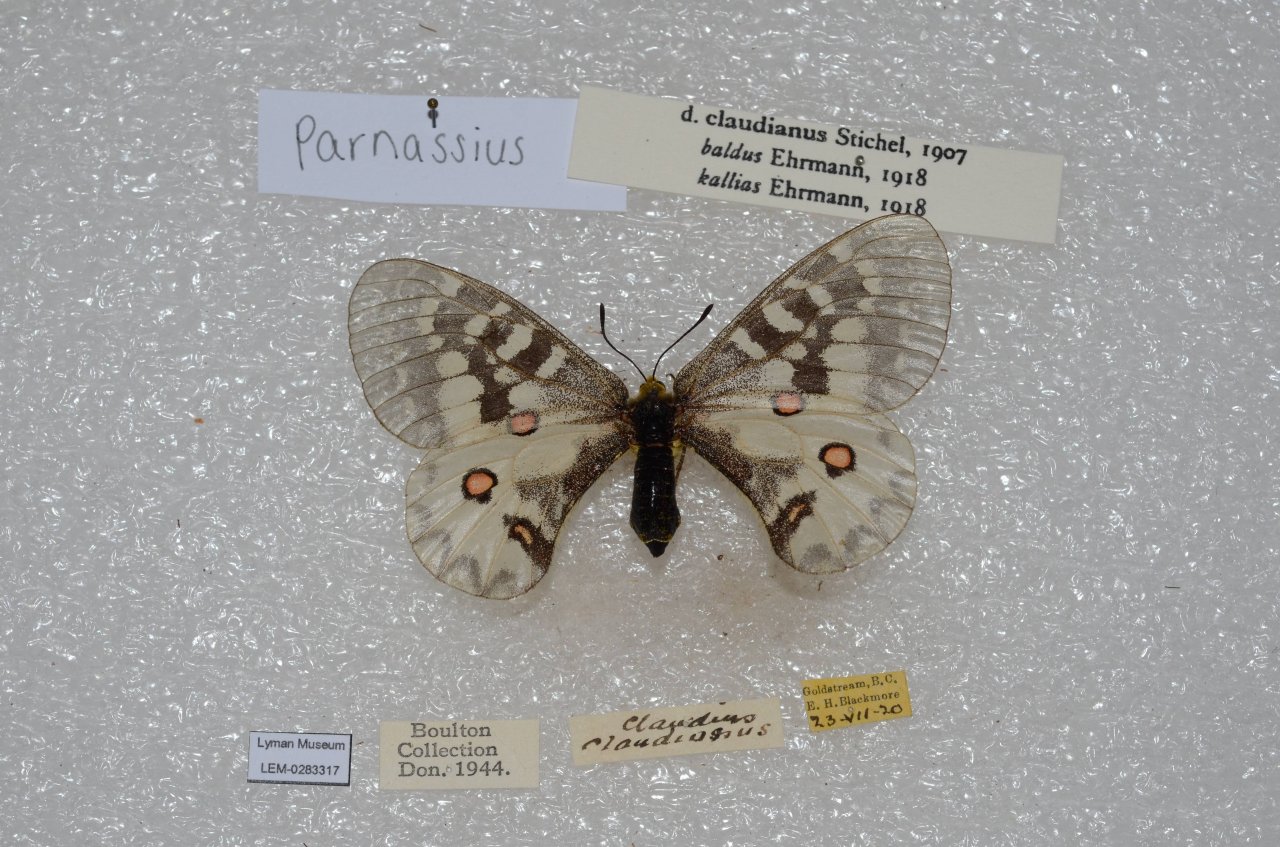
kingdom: Animalia
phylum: Arthropoda
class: Insecta
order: Lepidoptera
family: Papilionidae
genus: Parnassius
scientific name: Parnassius clodius
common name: Clodius Parnassian
